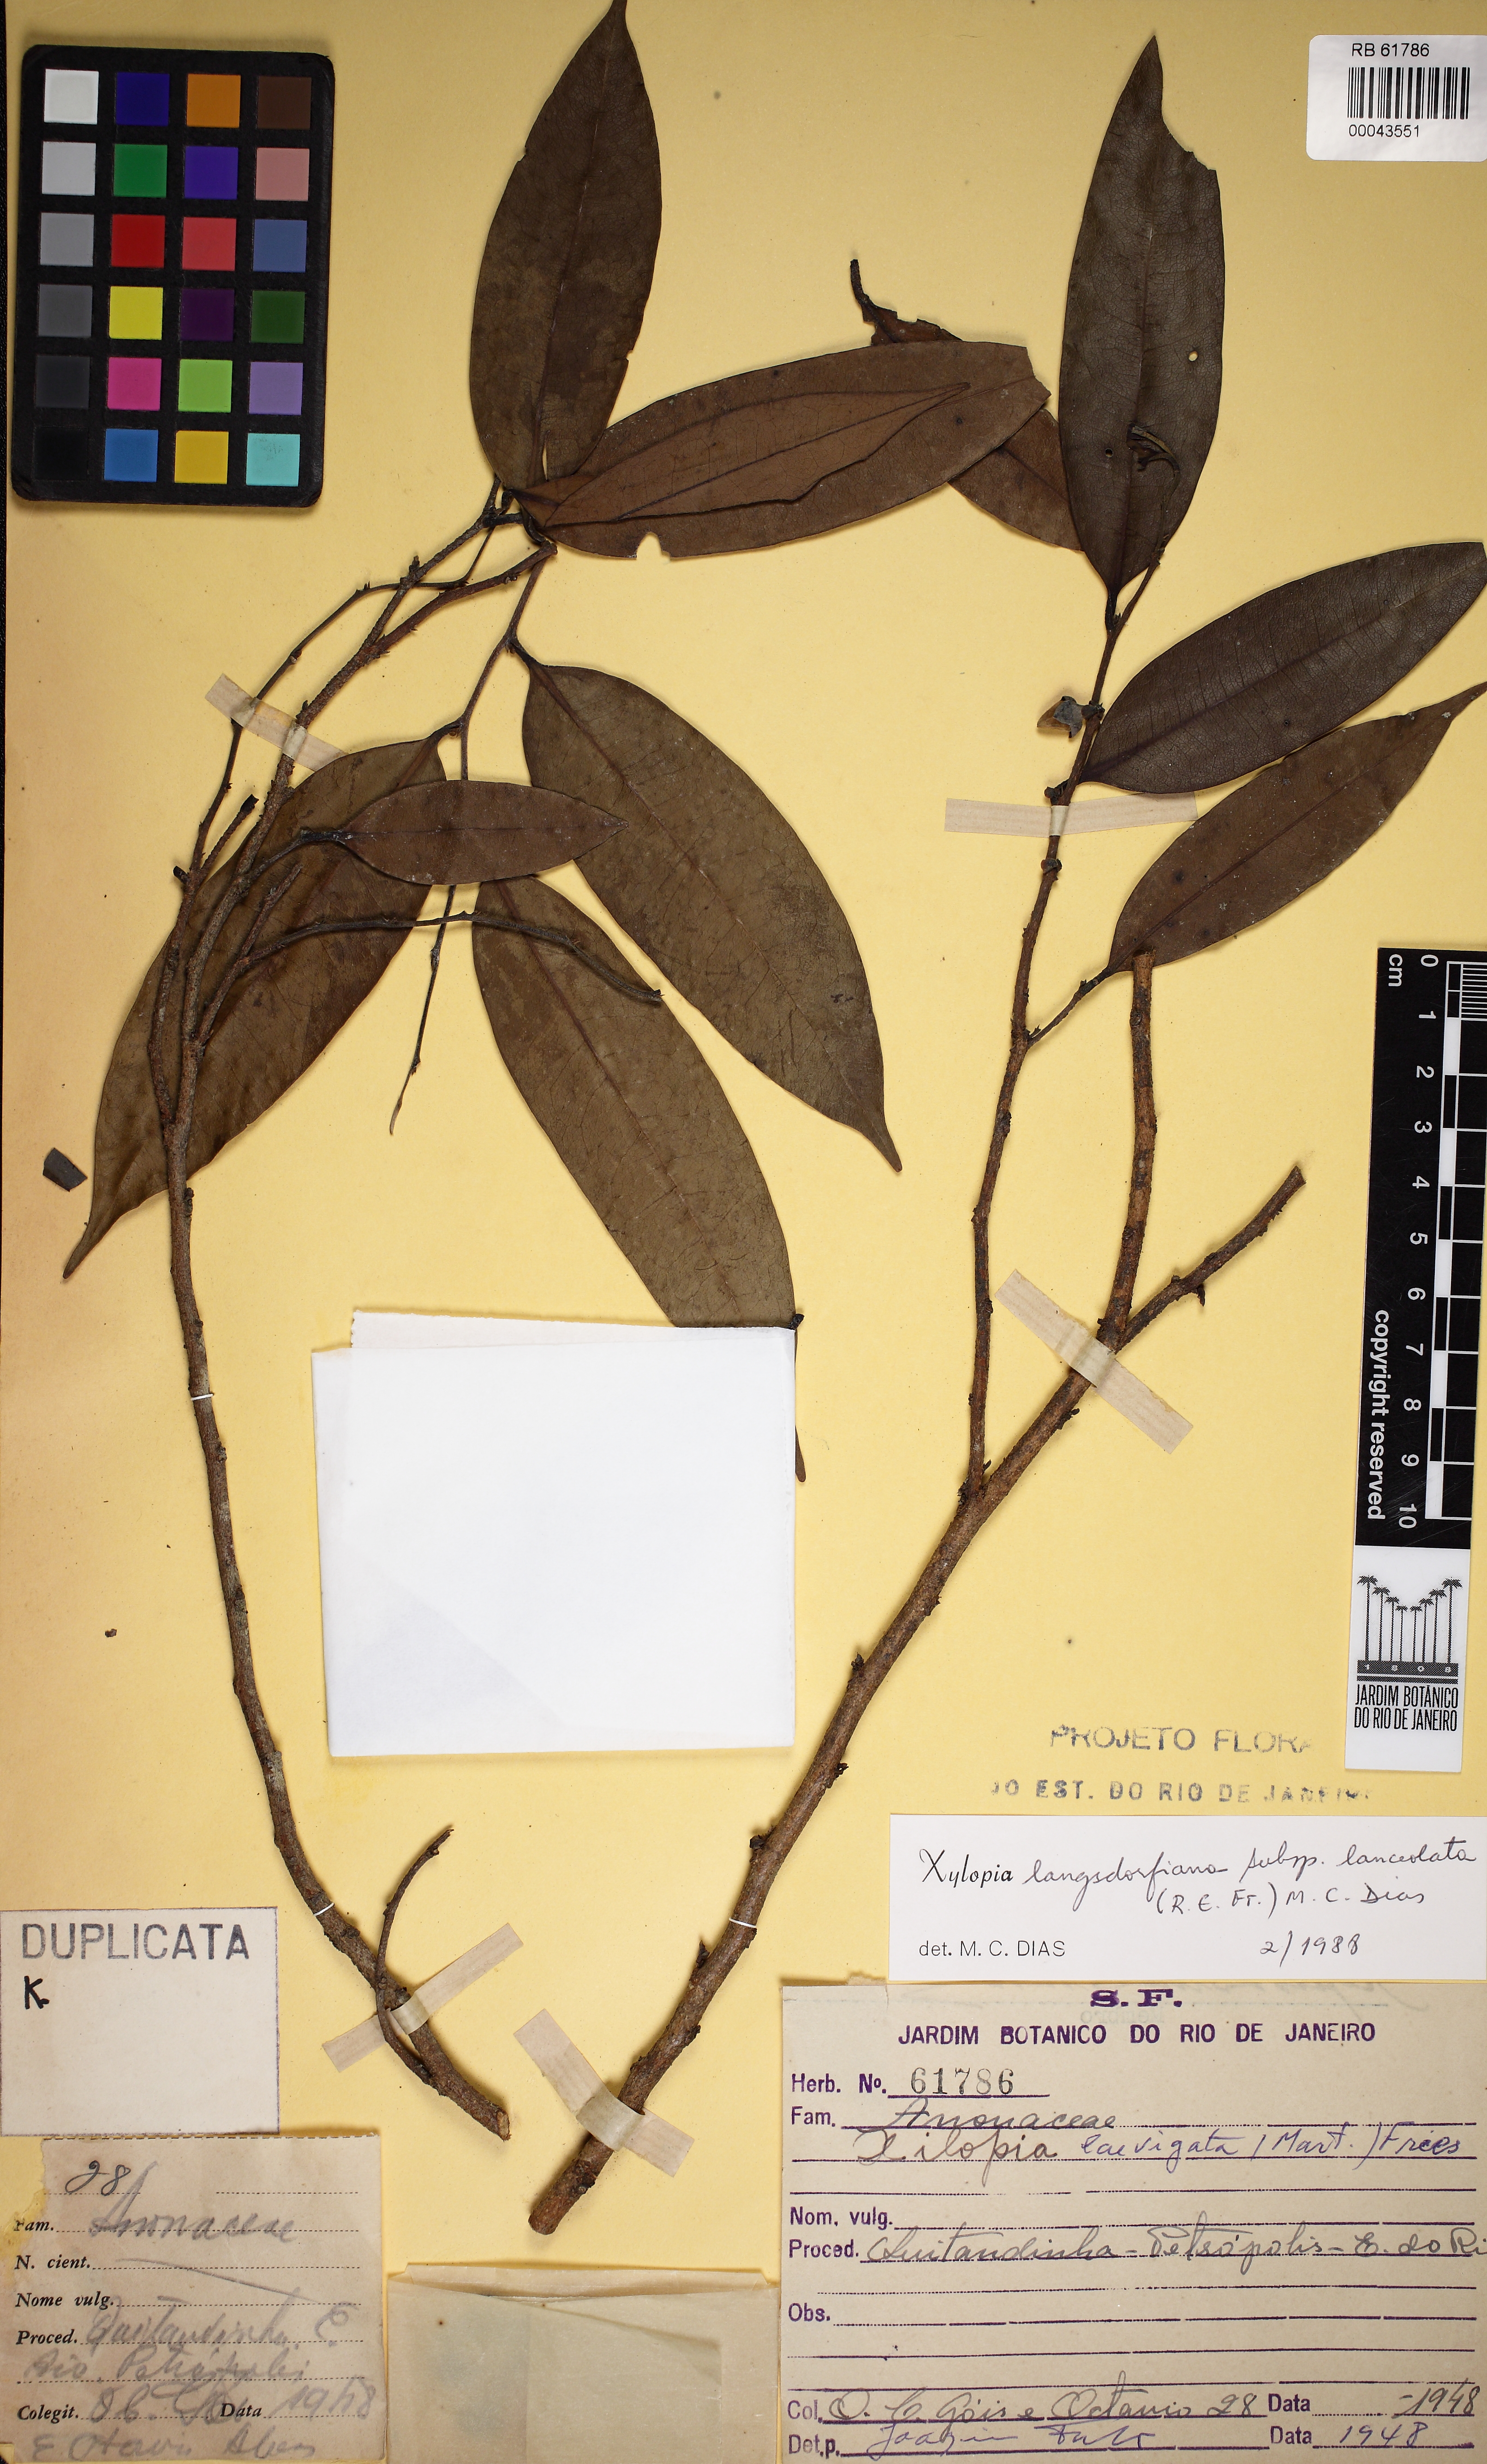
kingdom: Plantae
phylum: Tracheophyta
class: Magnoliopsida
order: Magnoliales
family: Annonaceae
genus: Xylopia
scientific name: Xylopia longicuspis
